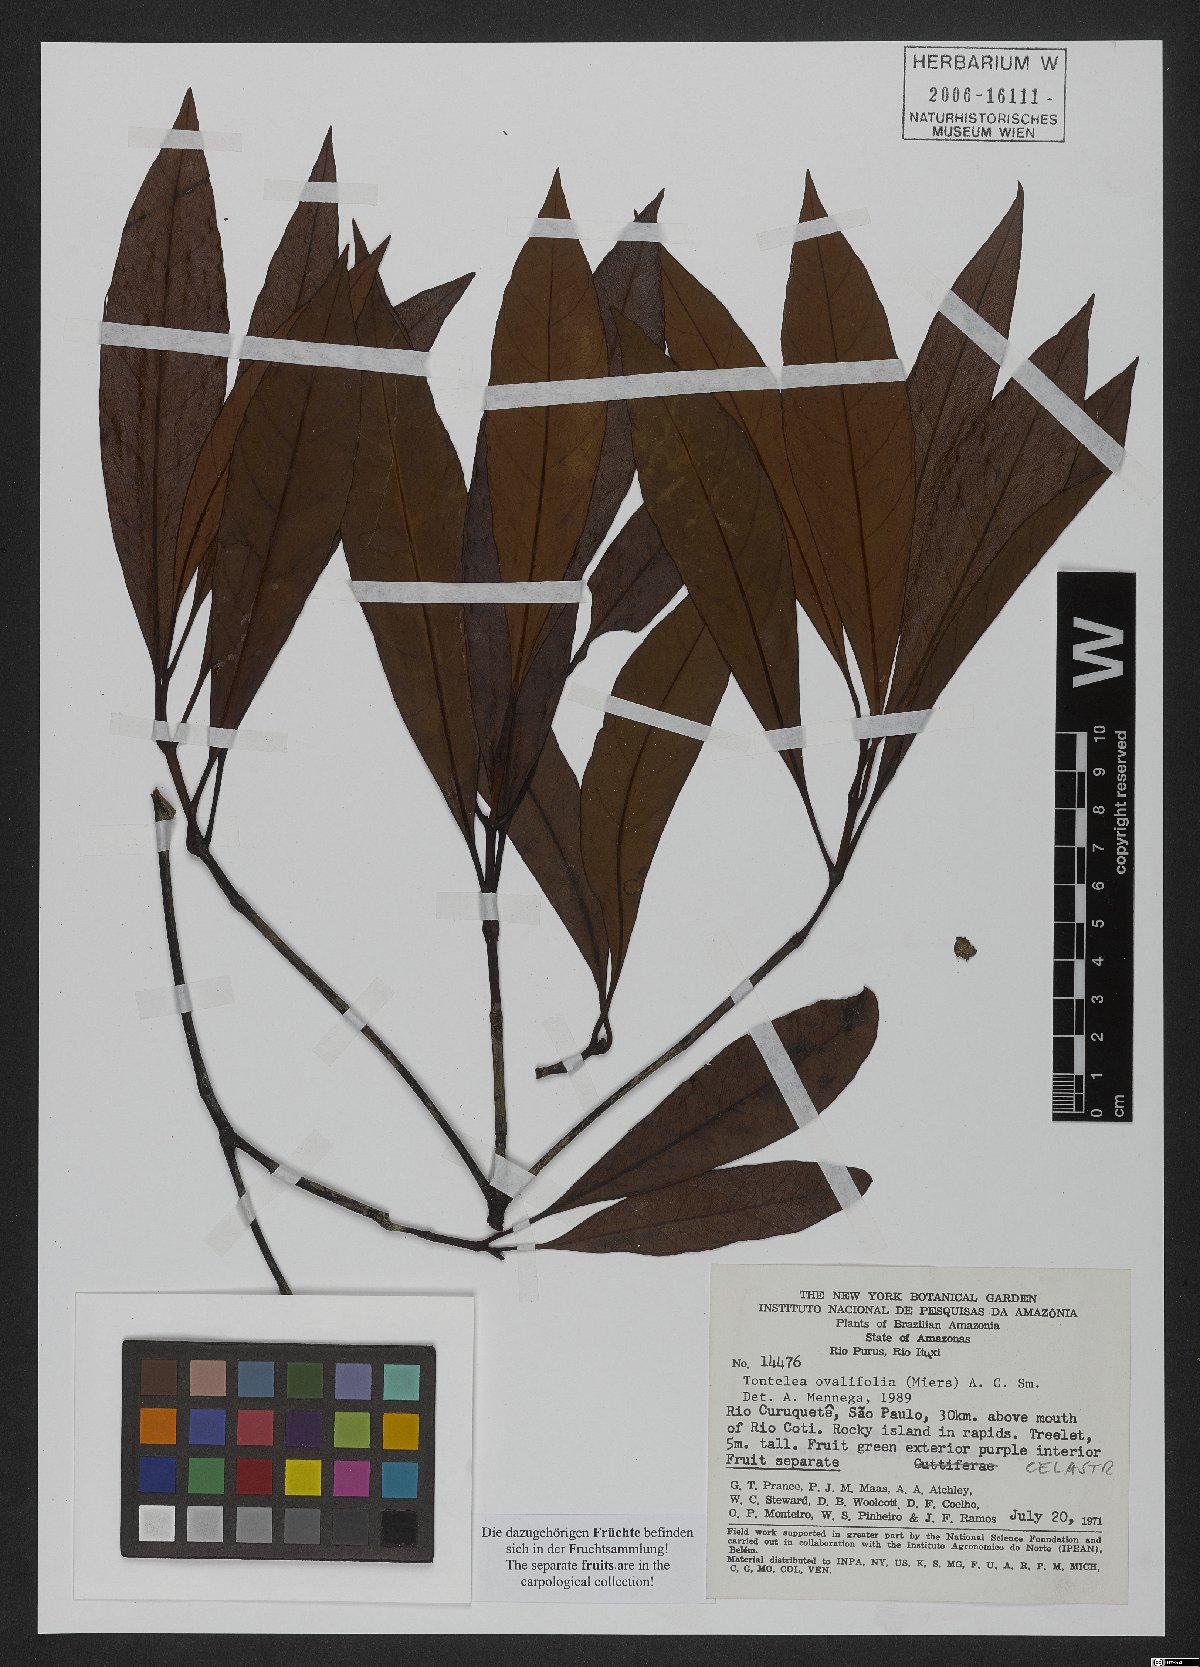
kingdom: Plantae
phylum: Tracheophyta
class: Magnoliopsida
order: Celastrales
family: Celastraceae
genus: Tontelea
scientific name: Tontelea passiflora
